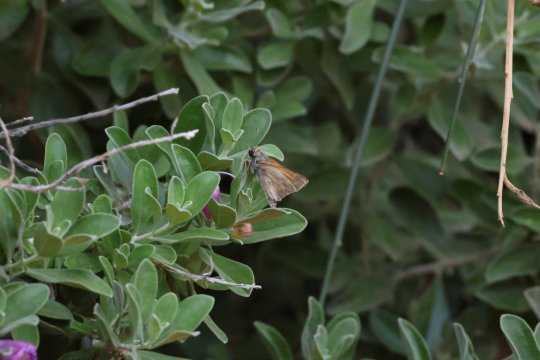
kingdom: Animalia
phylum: Arthropoda
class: Insecta
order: Lepidoptera
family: Hesperiidae
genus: Thoon
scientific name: Thoon taxes
